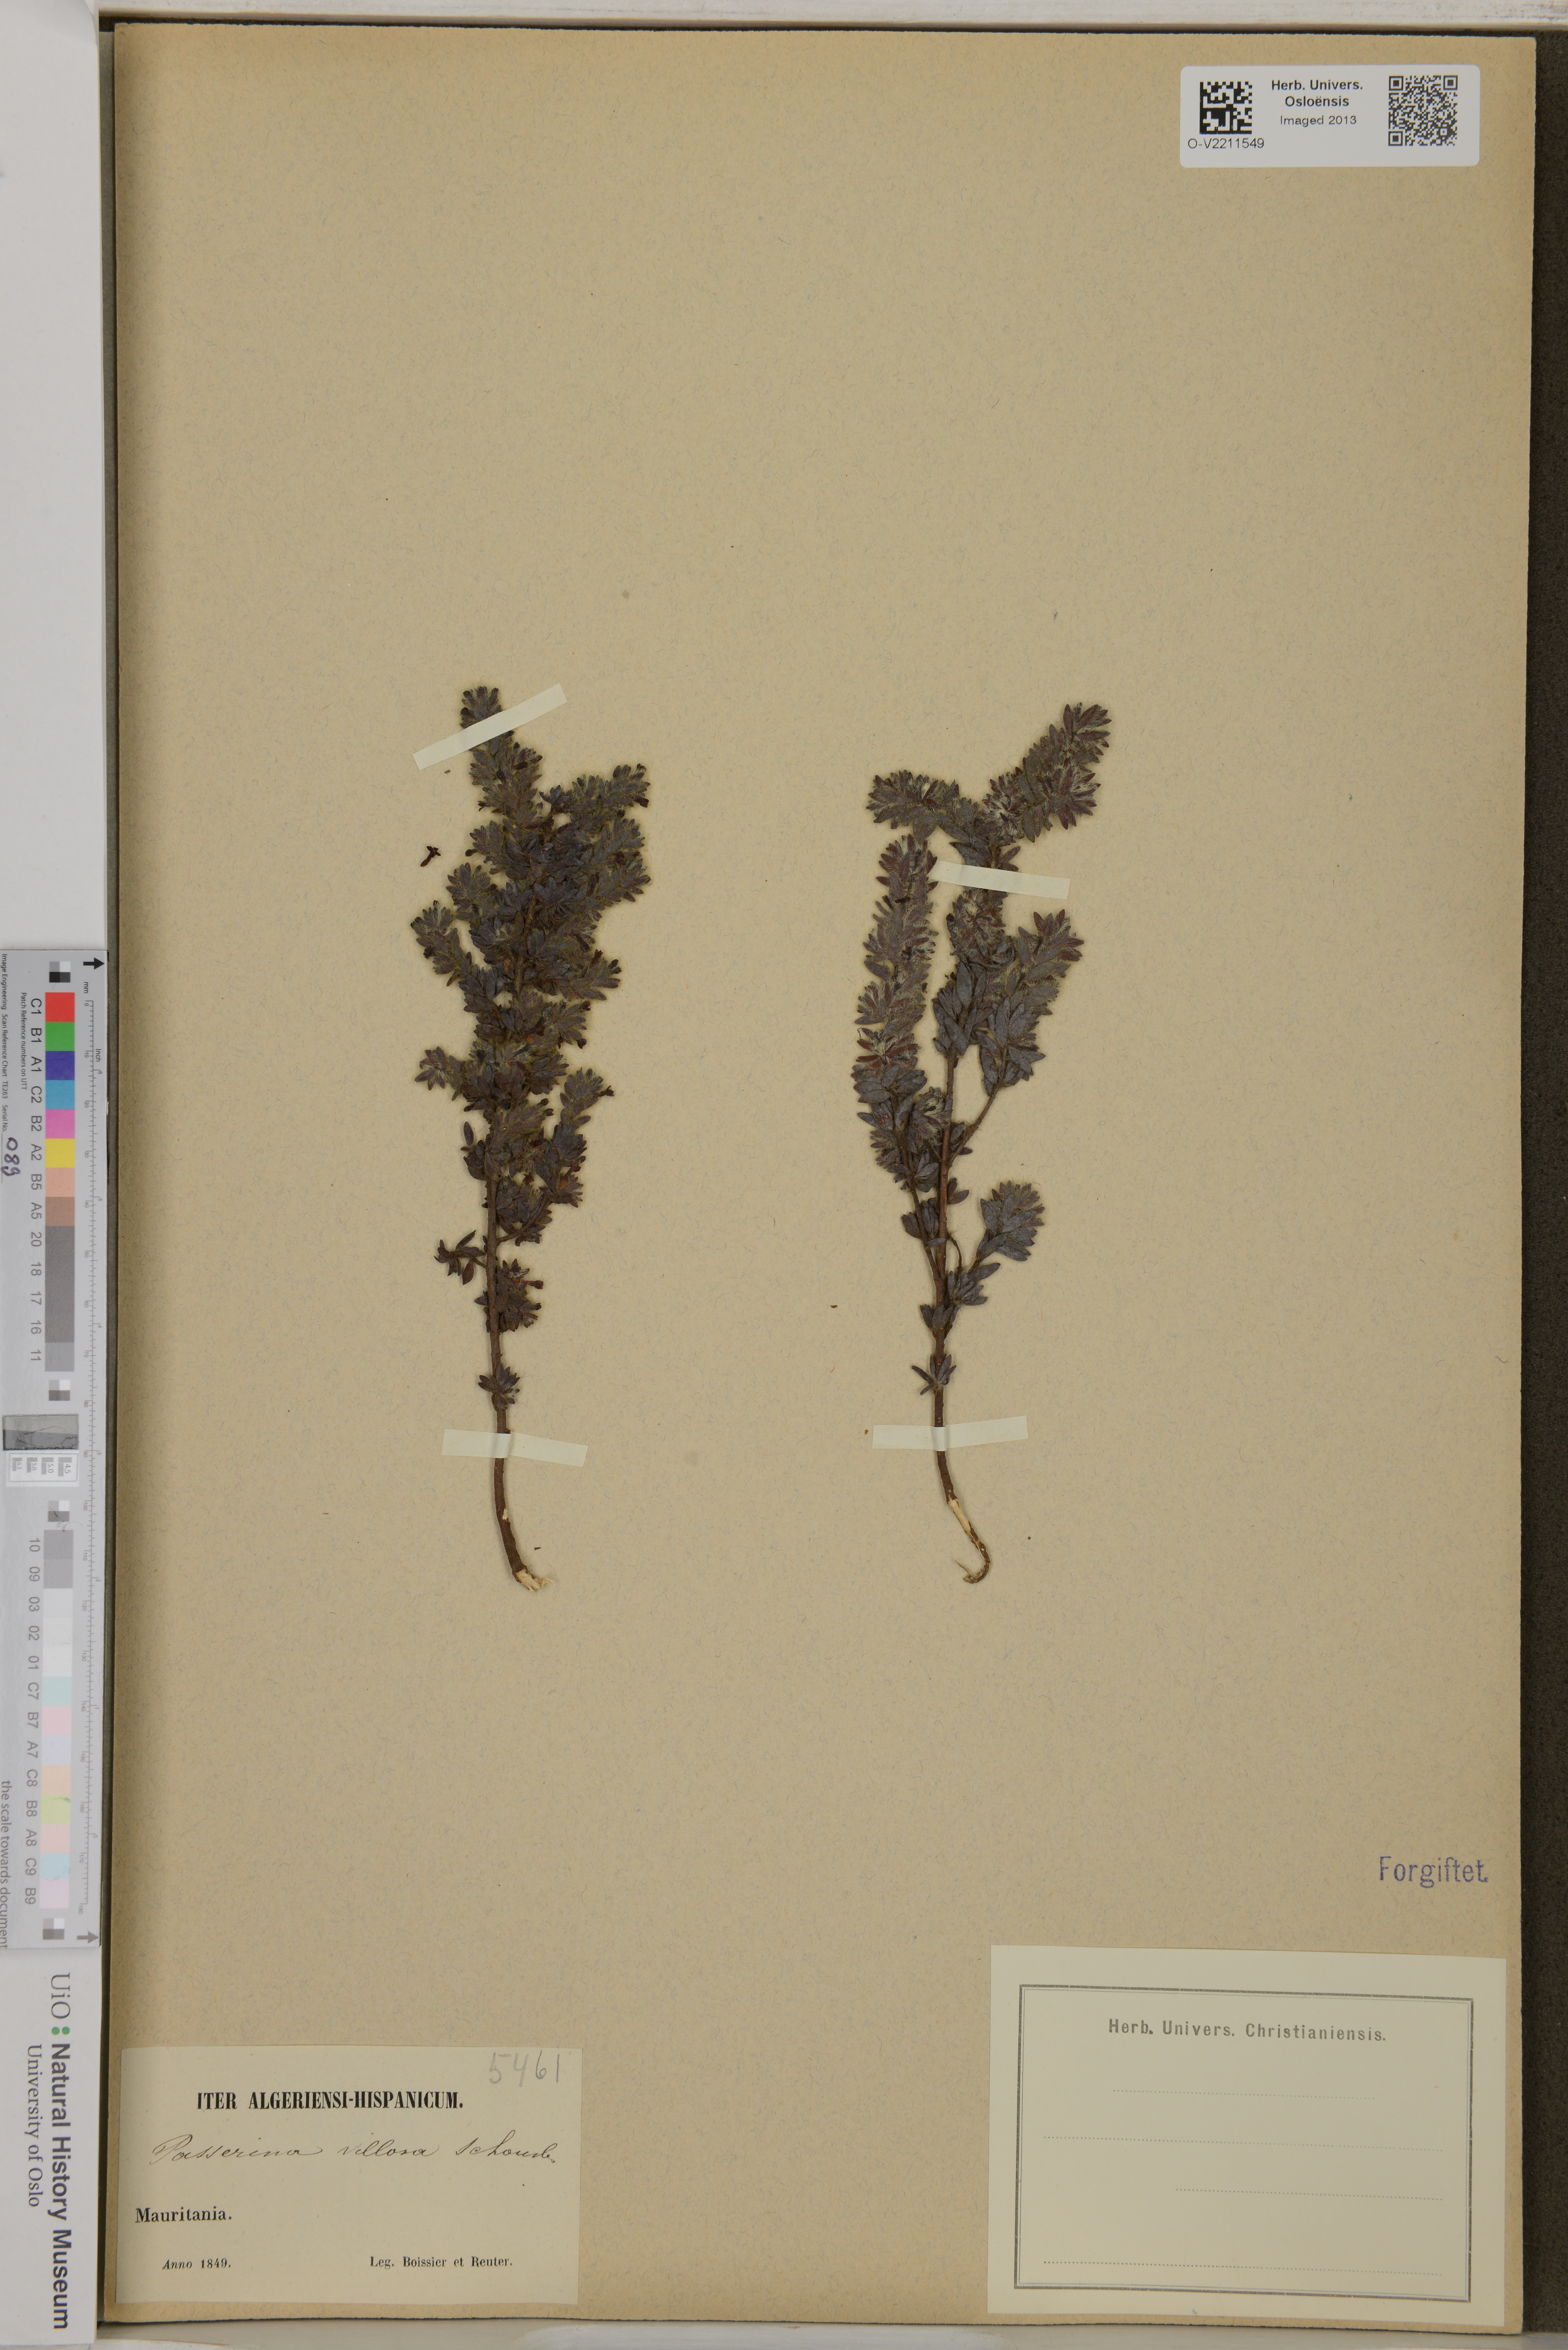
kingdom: Plantae
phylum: Tracheophyta
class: Magnoliopsida
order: Malvales
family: Thymelaeaceae
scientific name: Thymelaeaceae
